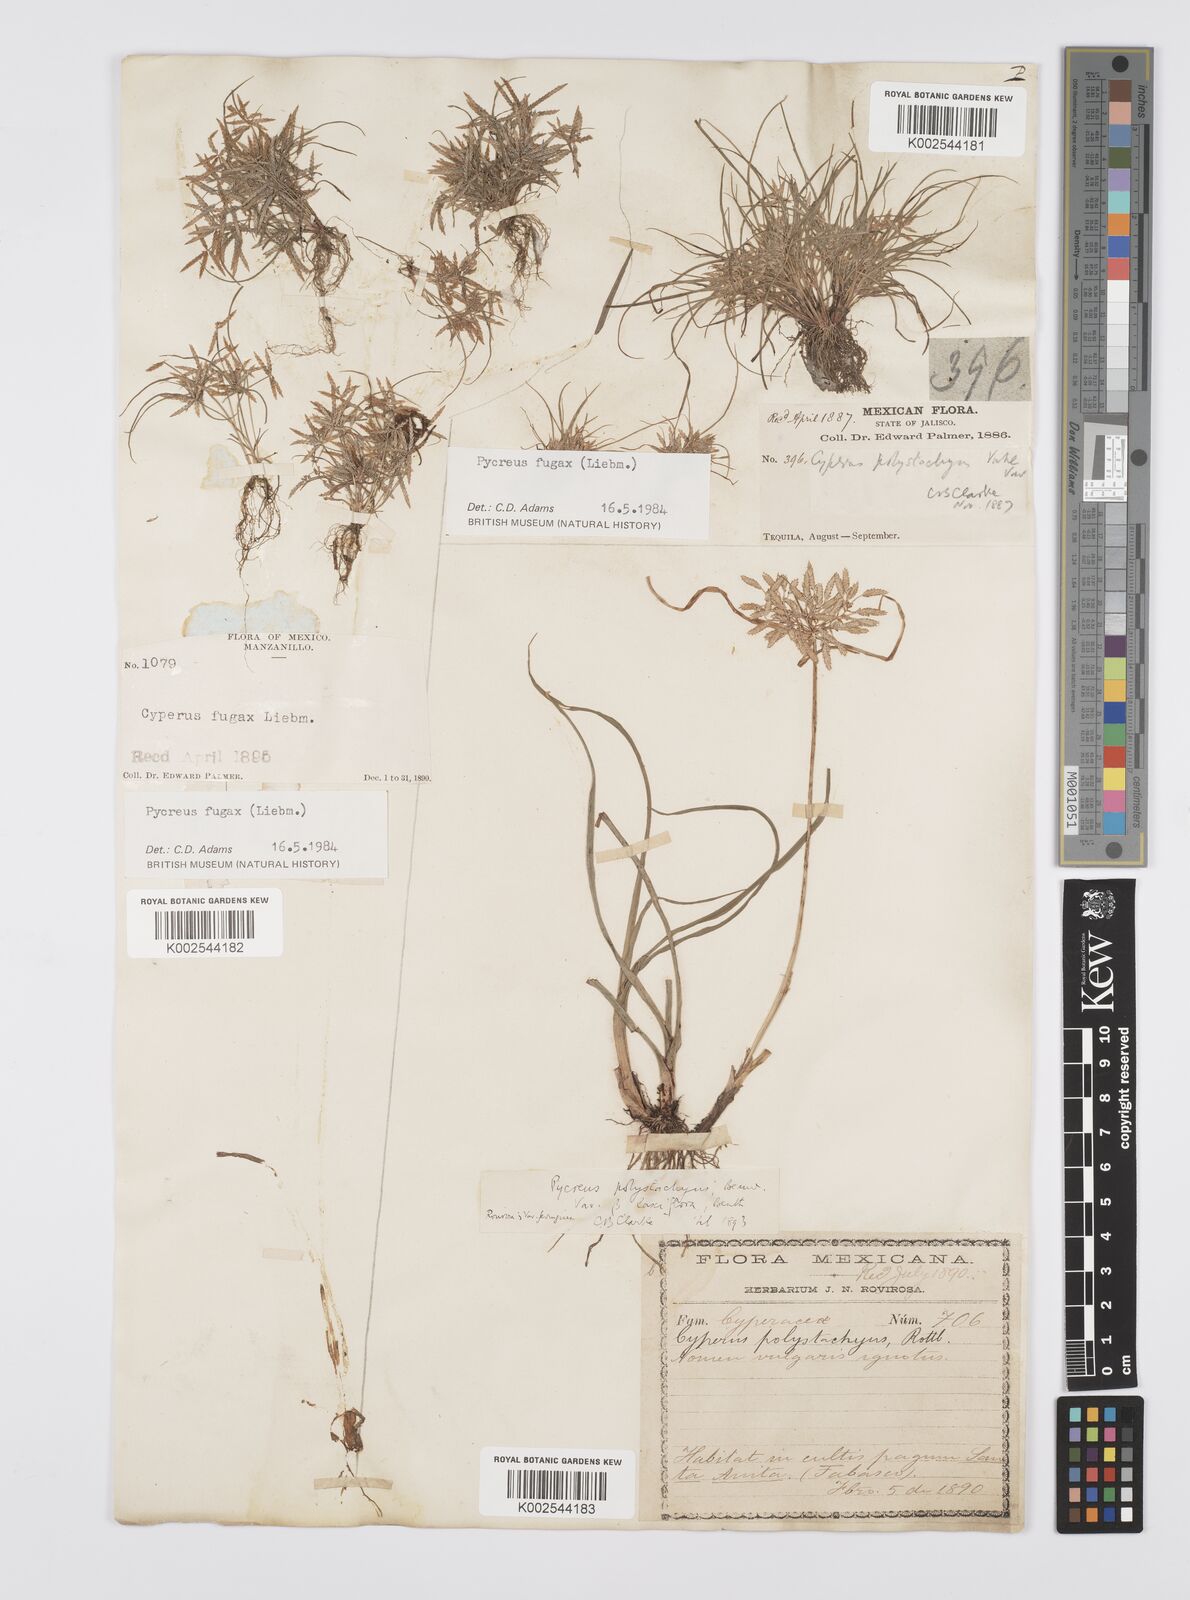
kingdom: Plantae
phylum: Tracheophyta
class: Liliopsida
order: Poales
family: Cyperaceae
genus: Cyperus
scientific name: Cyperus polystachyos
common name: Bunchy flat sedge
